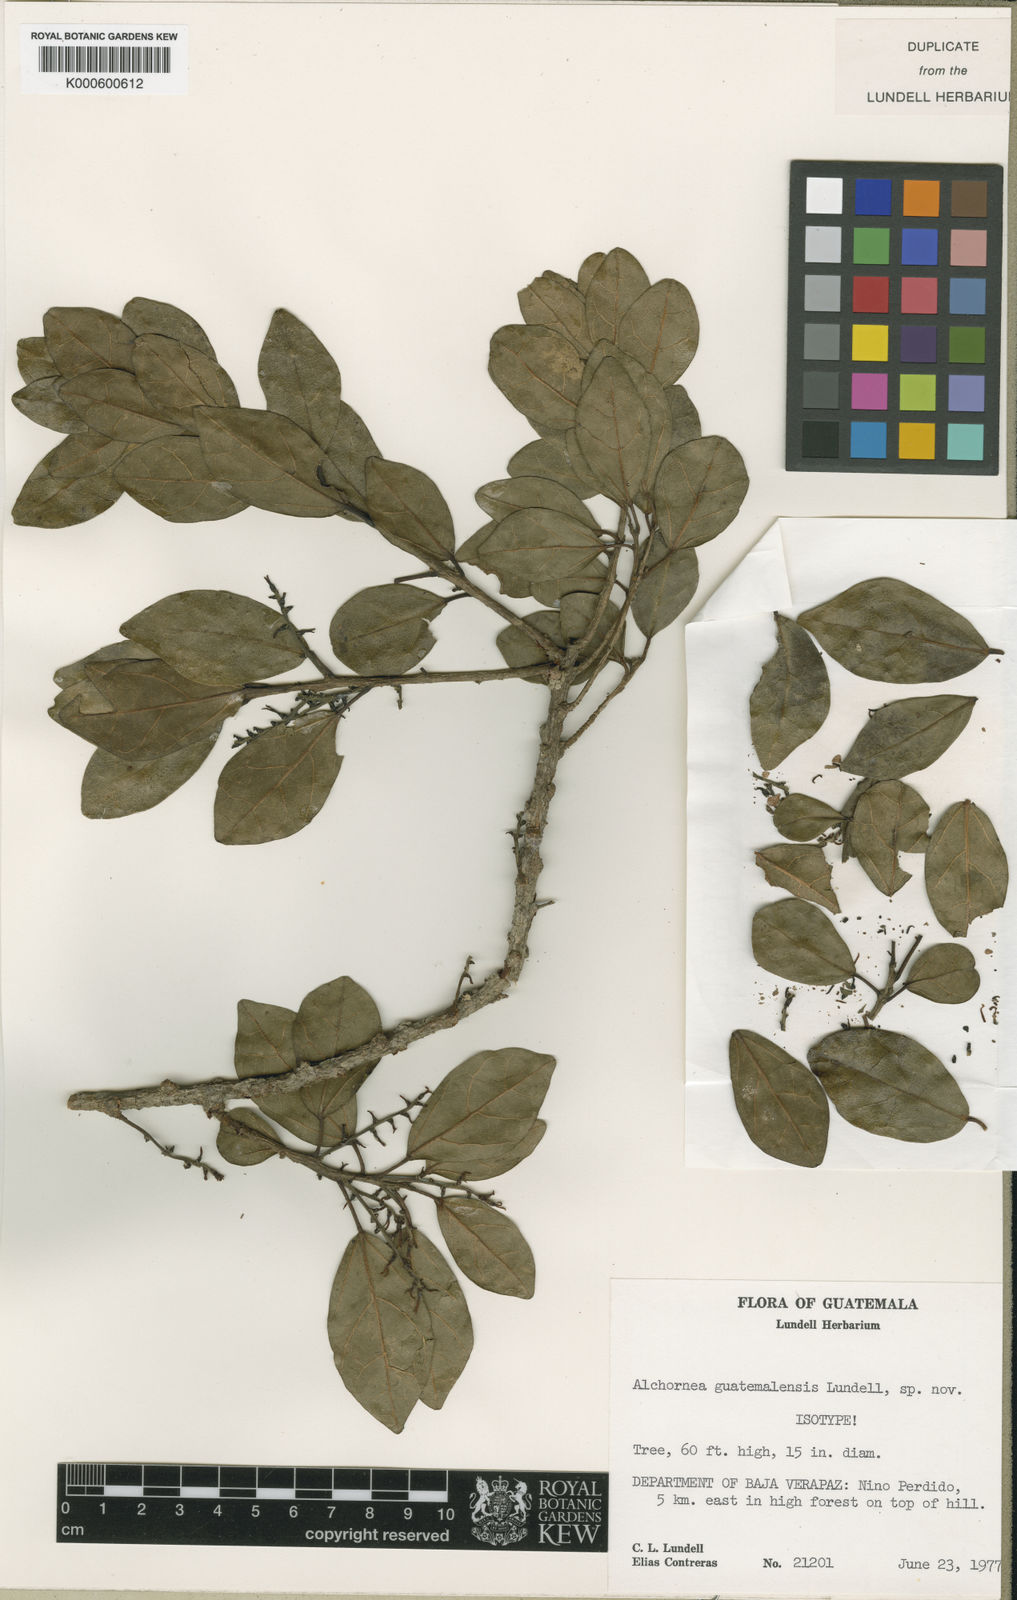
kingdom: Plantae
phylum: Tracheophyta
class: Magnoliopsida
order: Malpighiales
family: Euphorbiaceae
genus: Alchornea
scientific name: Alchornea guatemalensis
